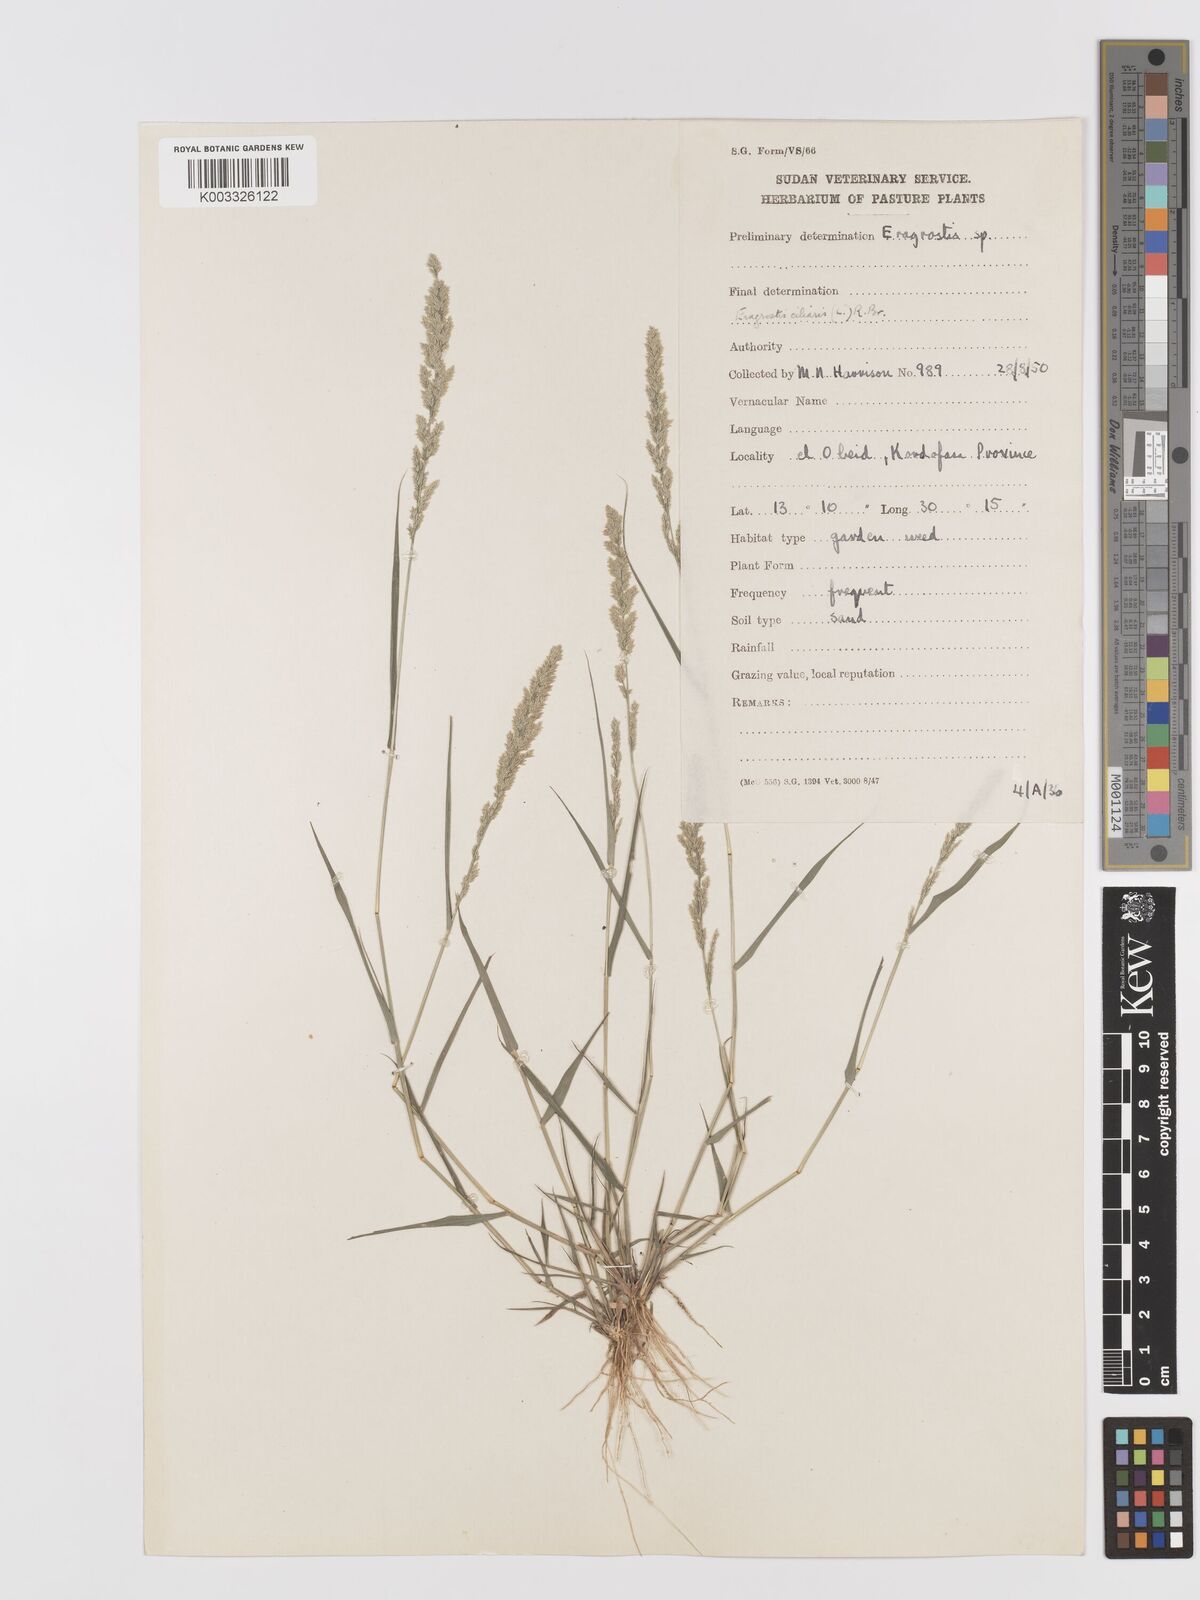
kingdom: Plantae
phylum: Tracheophyta
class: Liliopsida
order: Poales
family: Poaceae
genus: Eragrostis
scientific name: Eragrostis ciliaris
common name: Gophertail lovegrass
